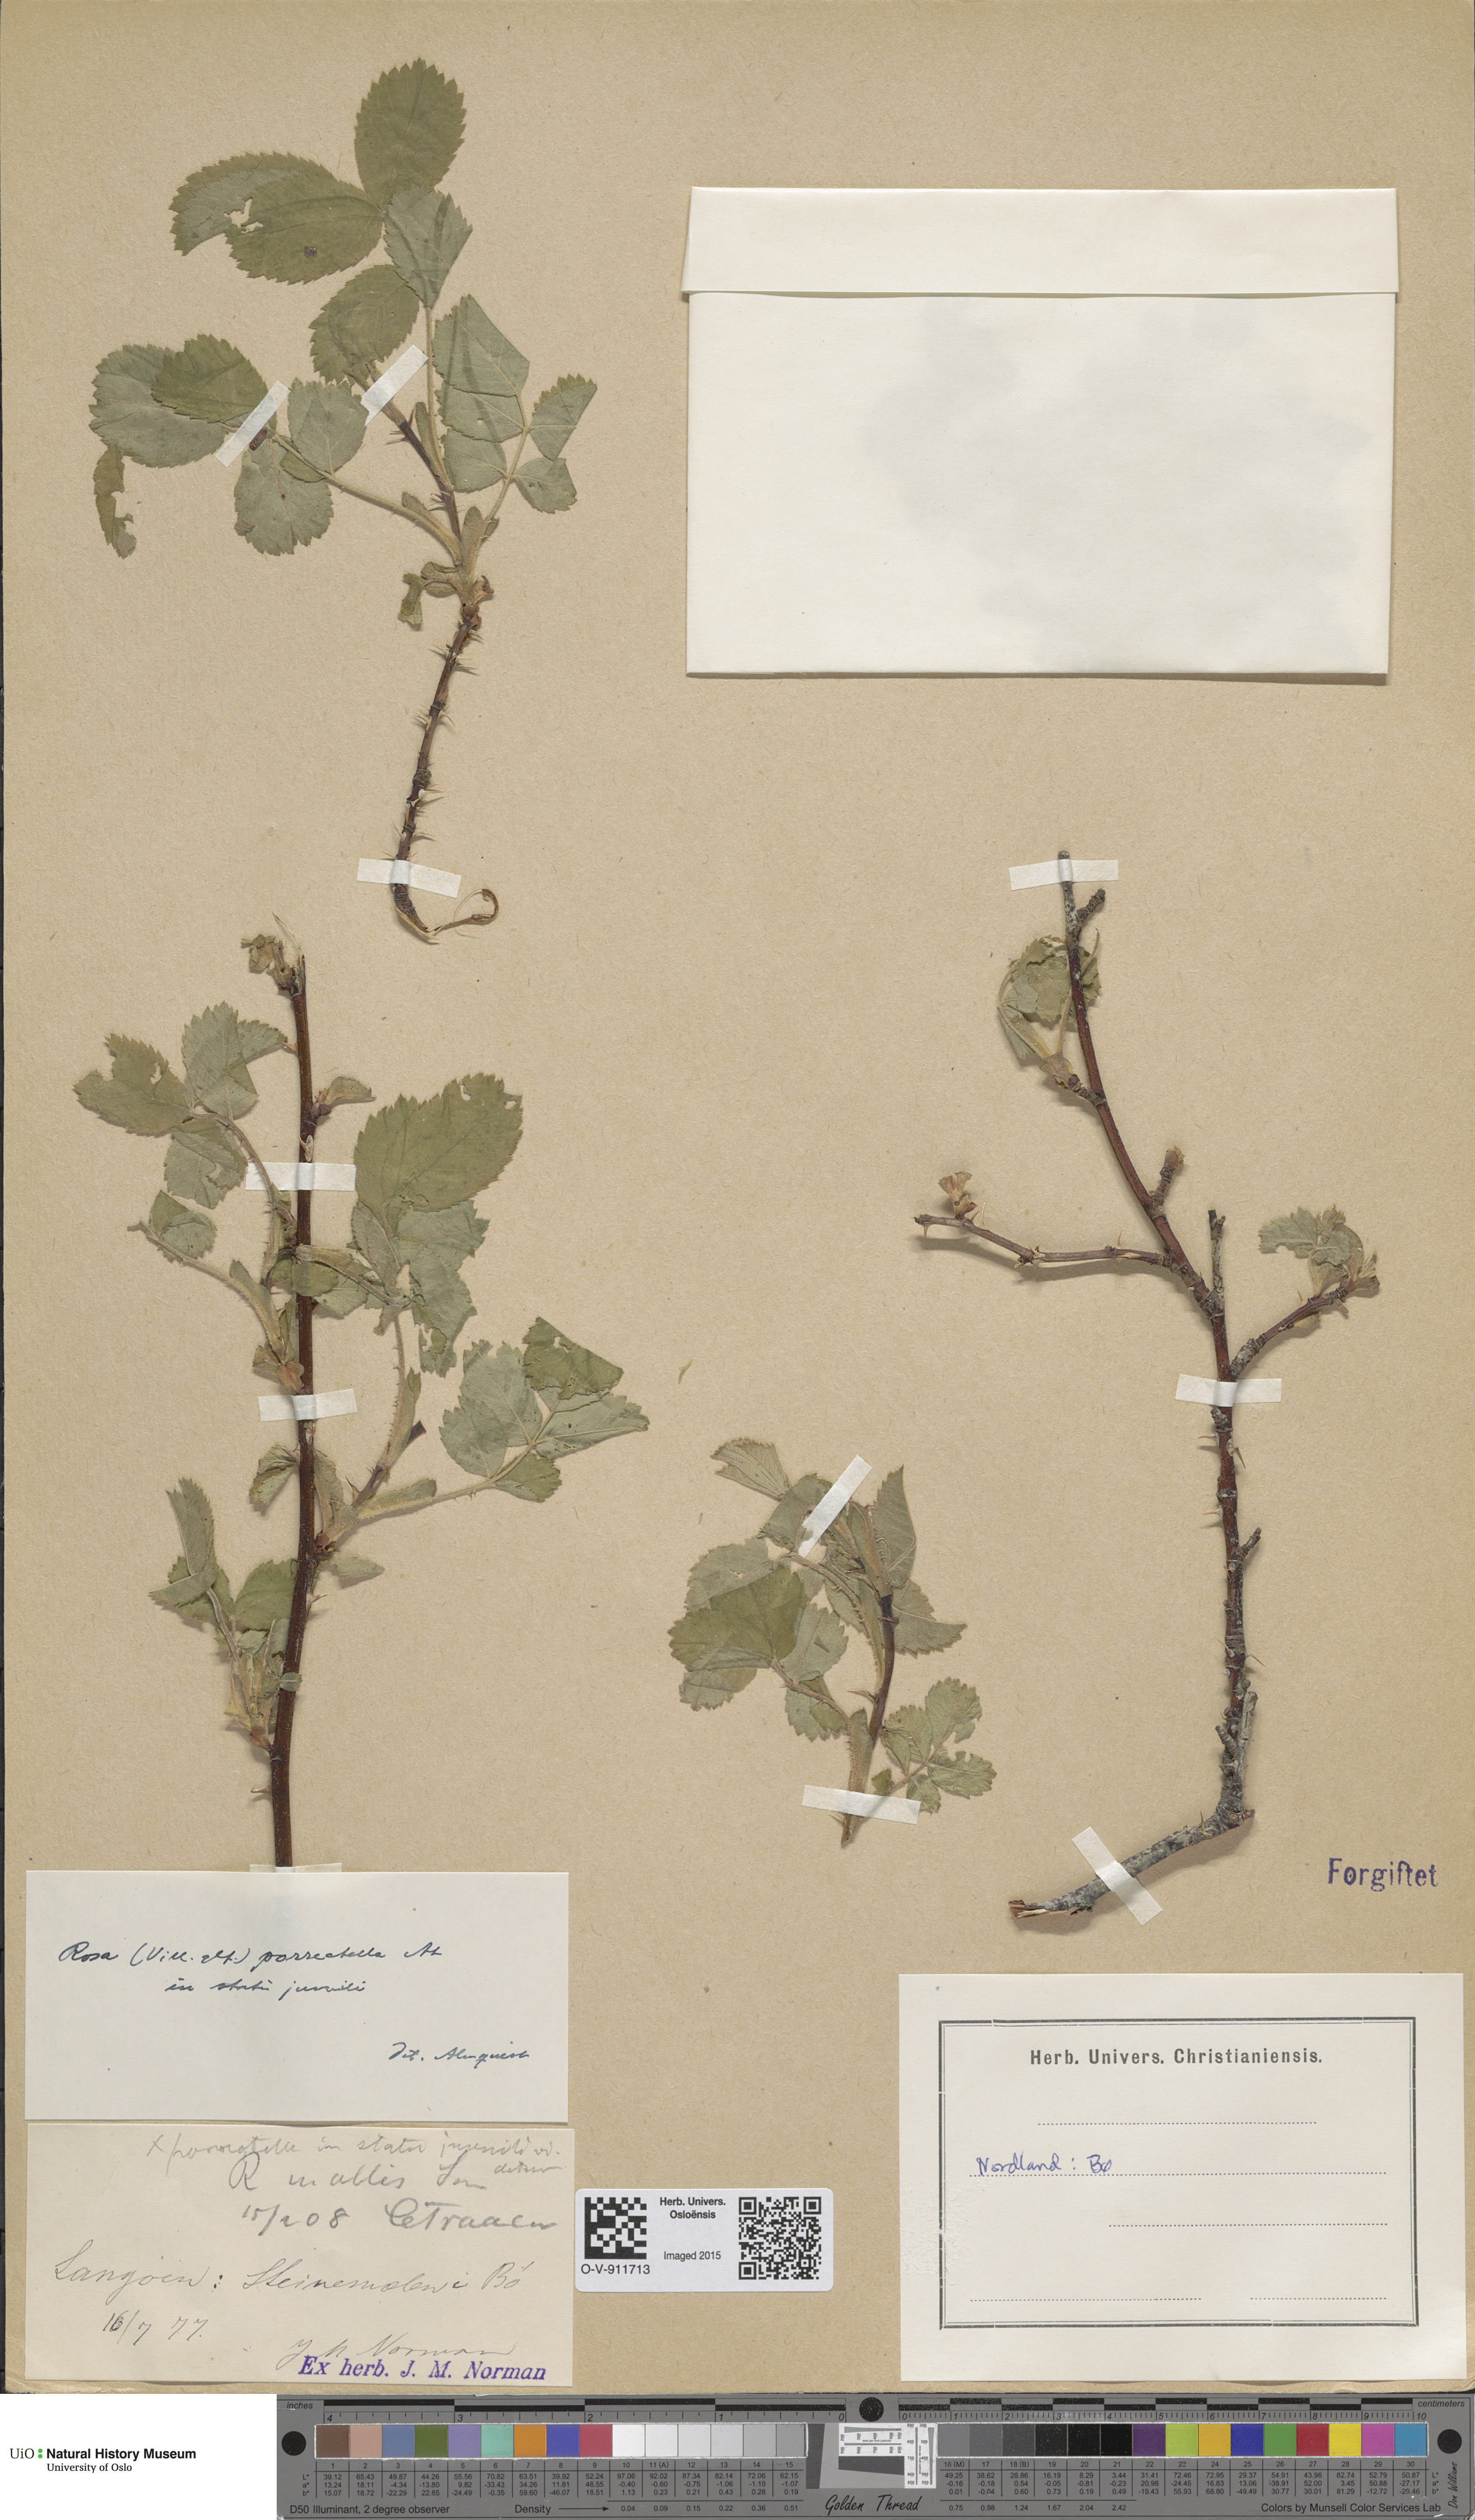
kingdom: Plantae
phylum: Tracheophyta
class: Magnoliopsida
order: Rosales
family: Rosaceae
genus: Rosa
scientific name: Rosa mollis
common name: Rose
